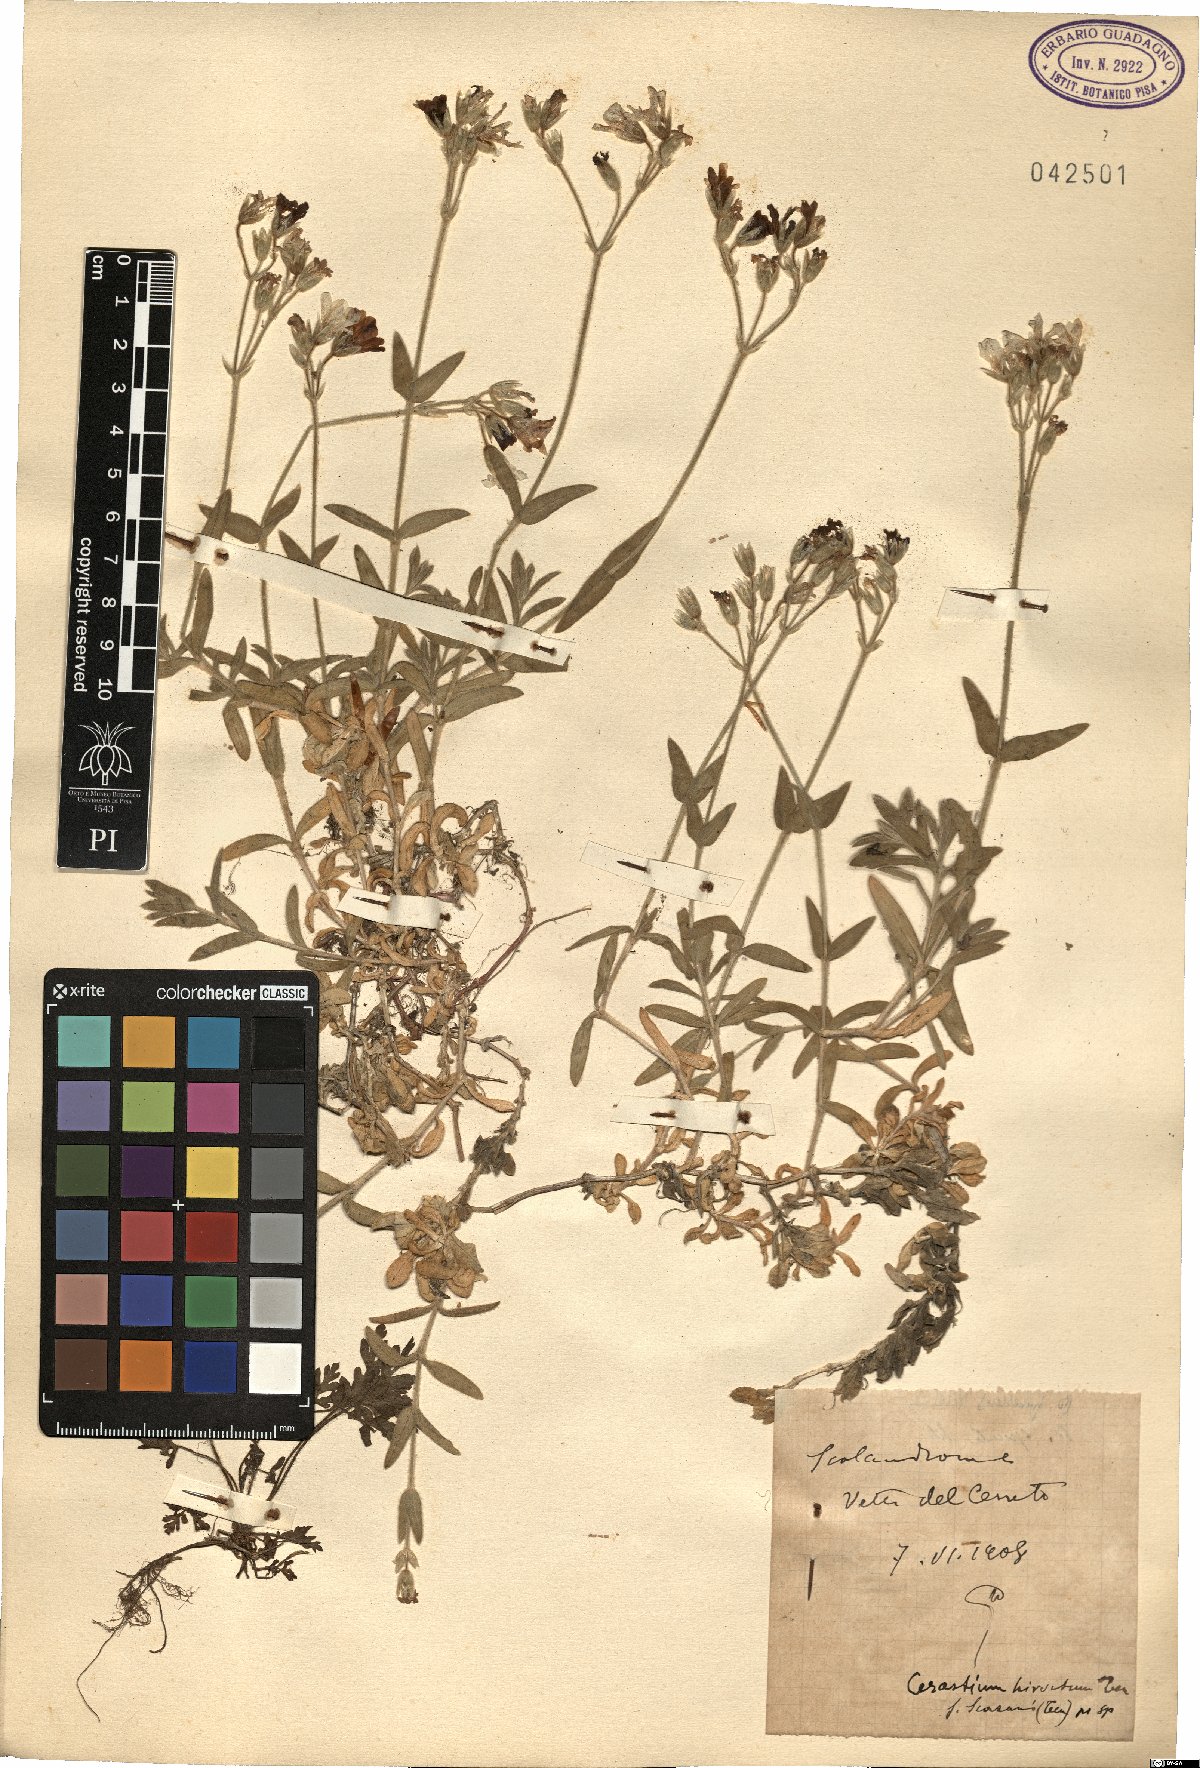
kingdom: Plantae
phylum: Tracheophyta
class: Magnoliopsida
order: Caryophyllales
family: Caryophyllaceae
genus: Cerastium
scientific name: Cerastium scaranii
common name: Italian mouse-ear
